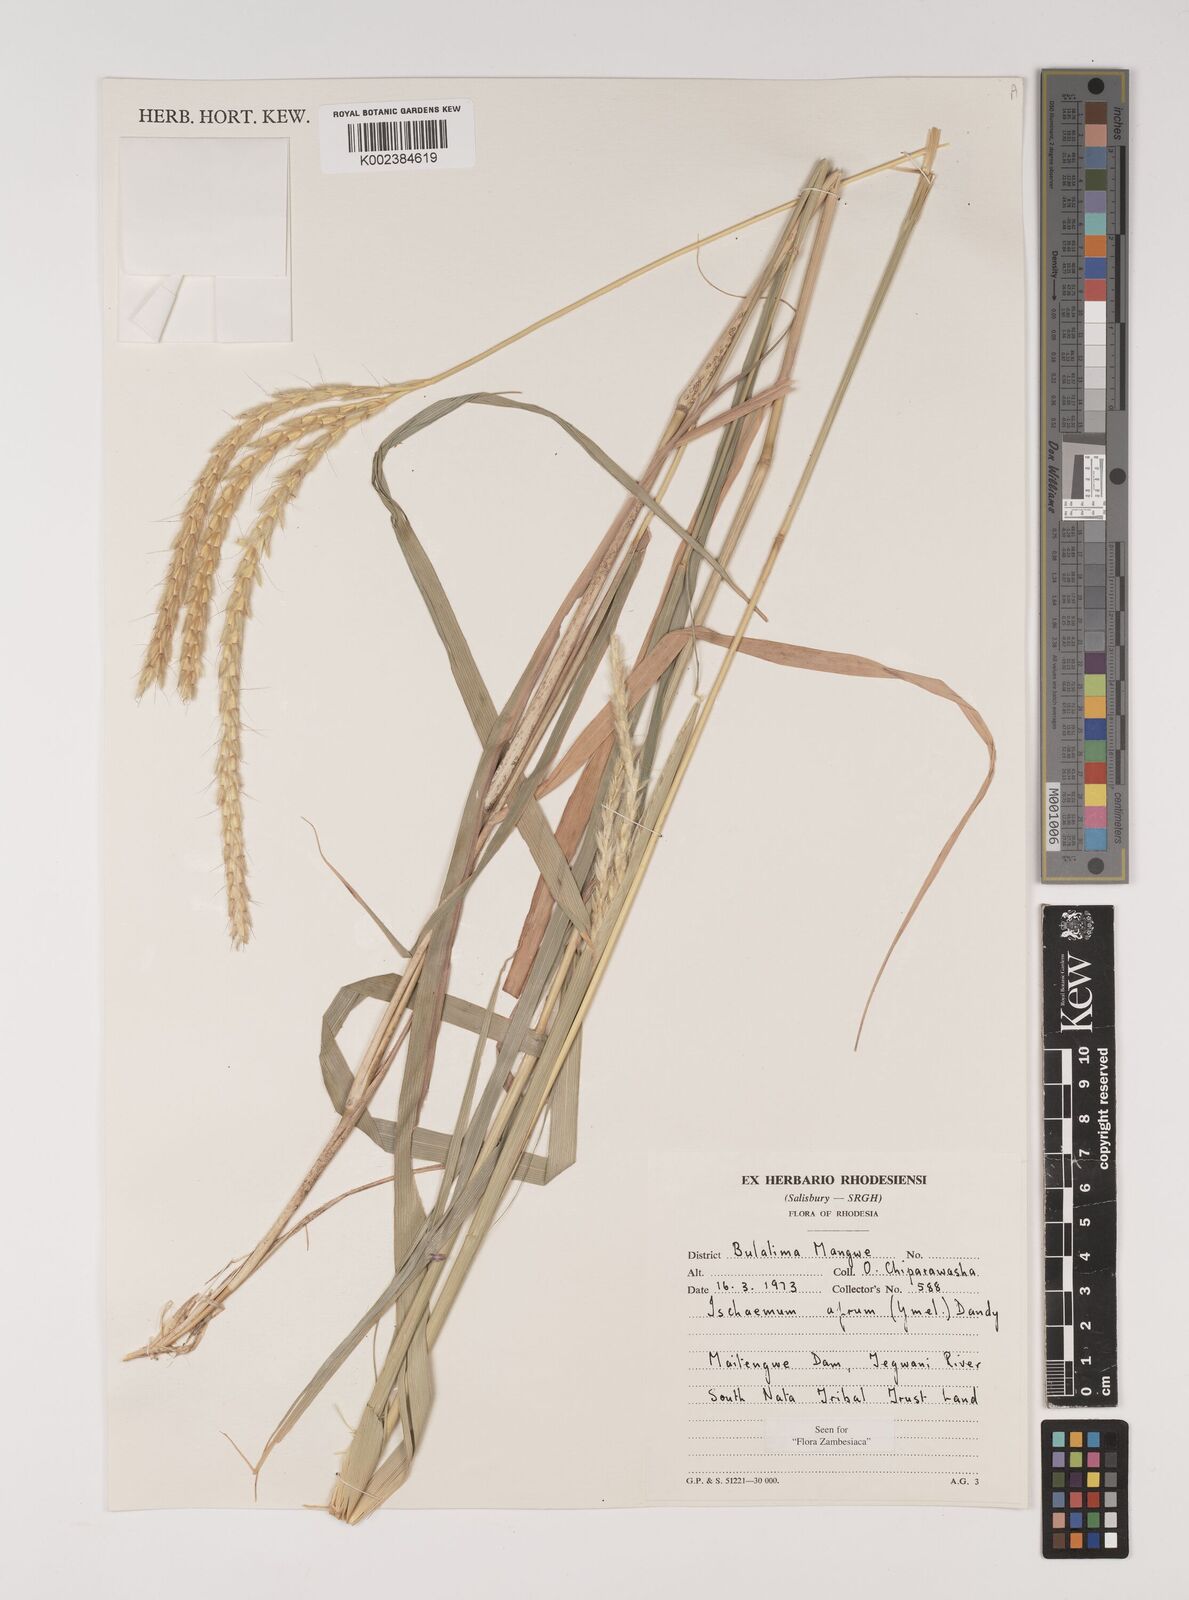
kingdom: Plantae
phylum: Tracheophyta
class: Liliopsida
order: Poales
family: Poaceae
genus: Ischaemum
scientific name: Ischaemum afrum
